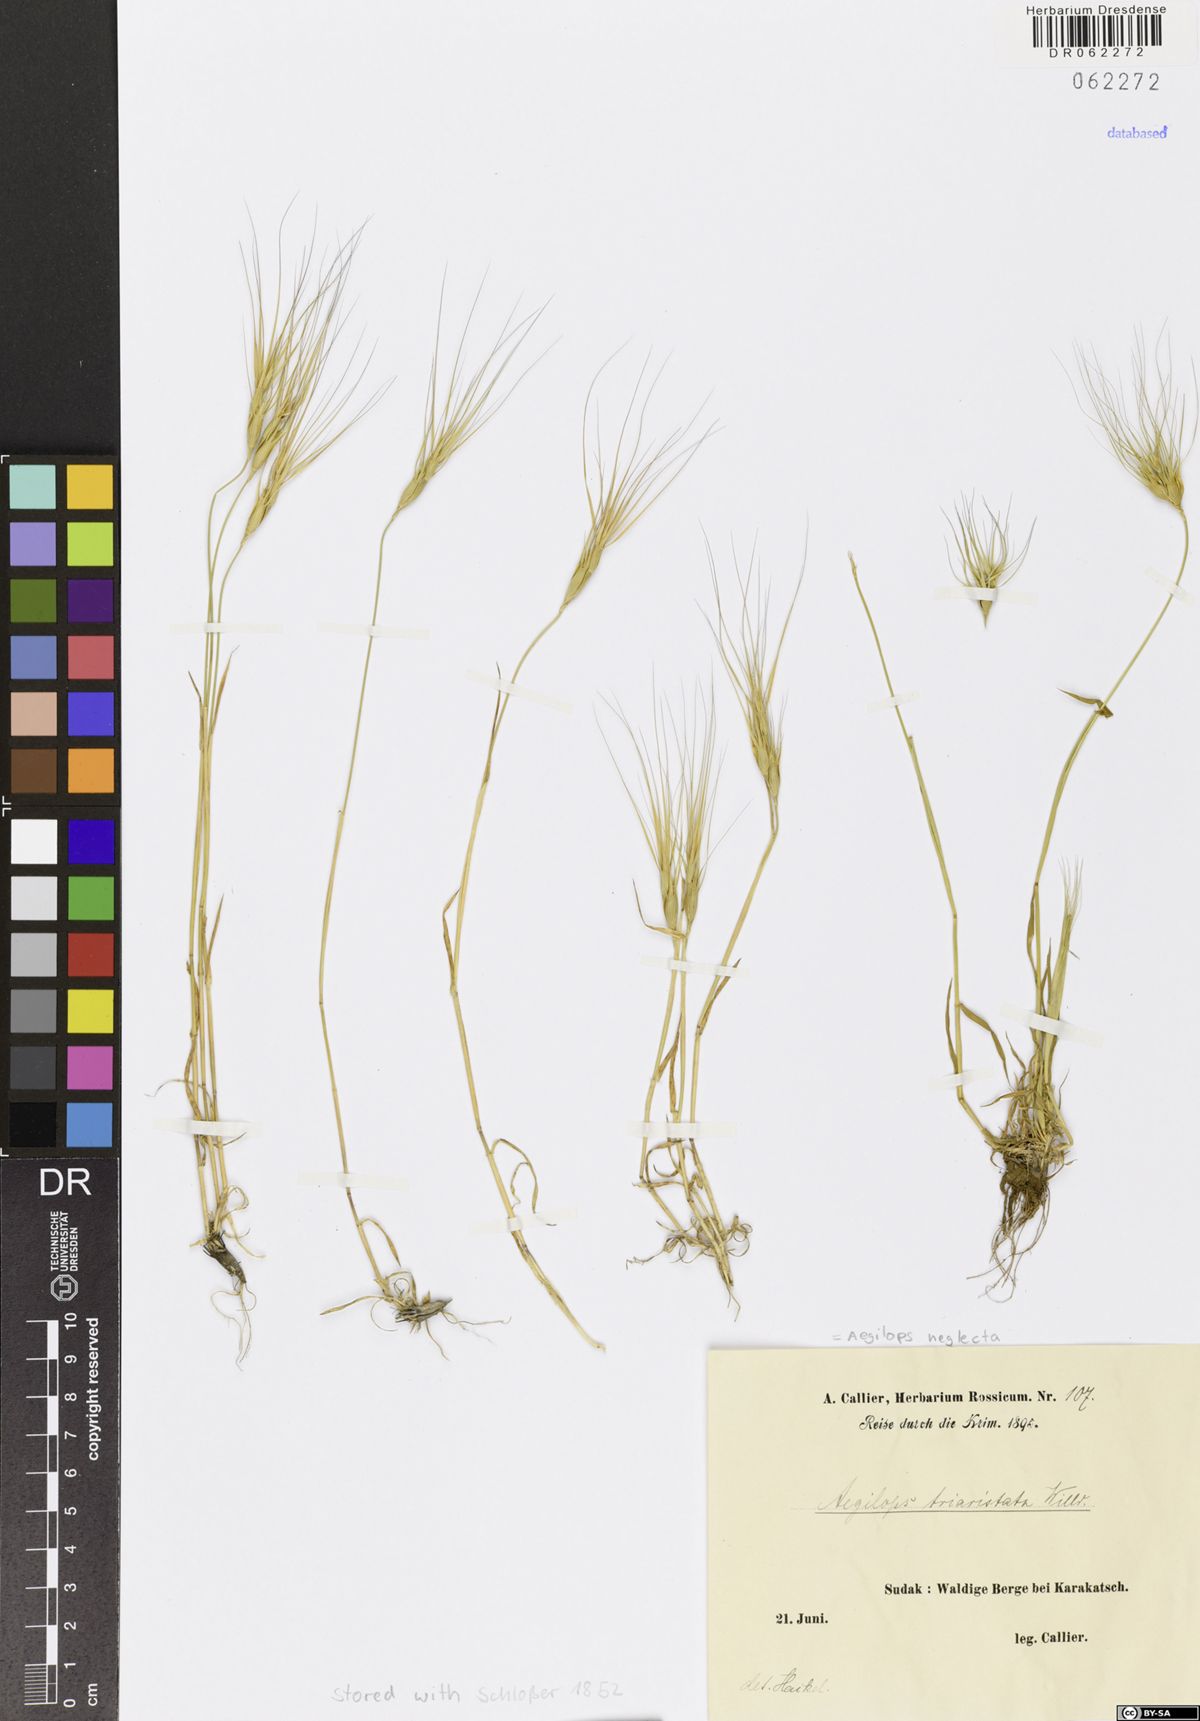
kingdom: Plantae
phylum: Tracheophyta
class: Liliopsida
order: Poales
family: Poaceae
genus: Aegilops
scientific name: Aegilops neglecta
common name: Three-awn goat grass
